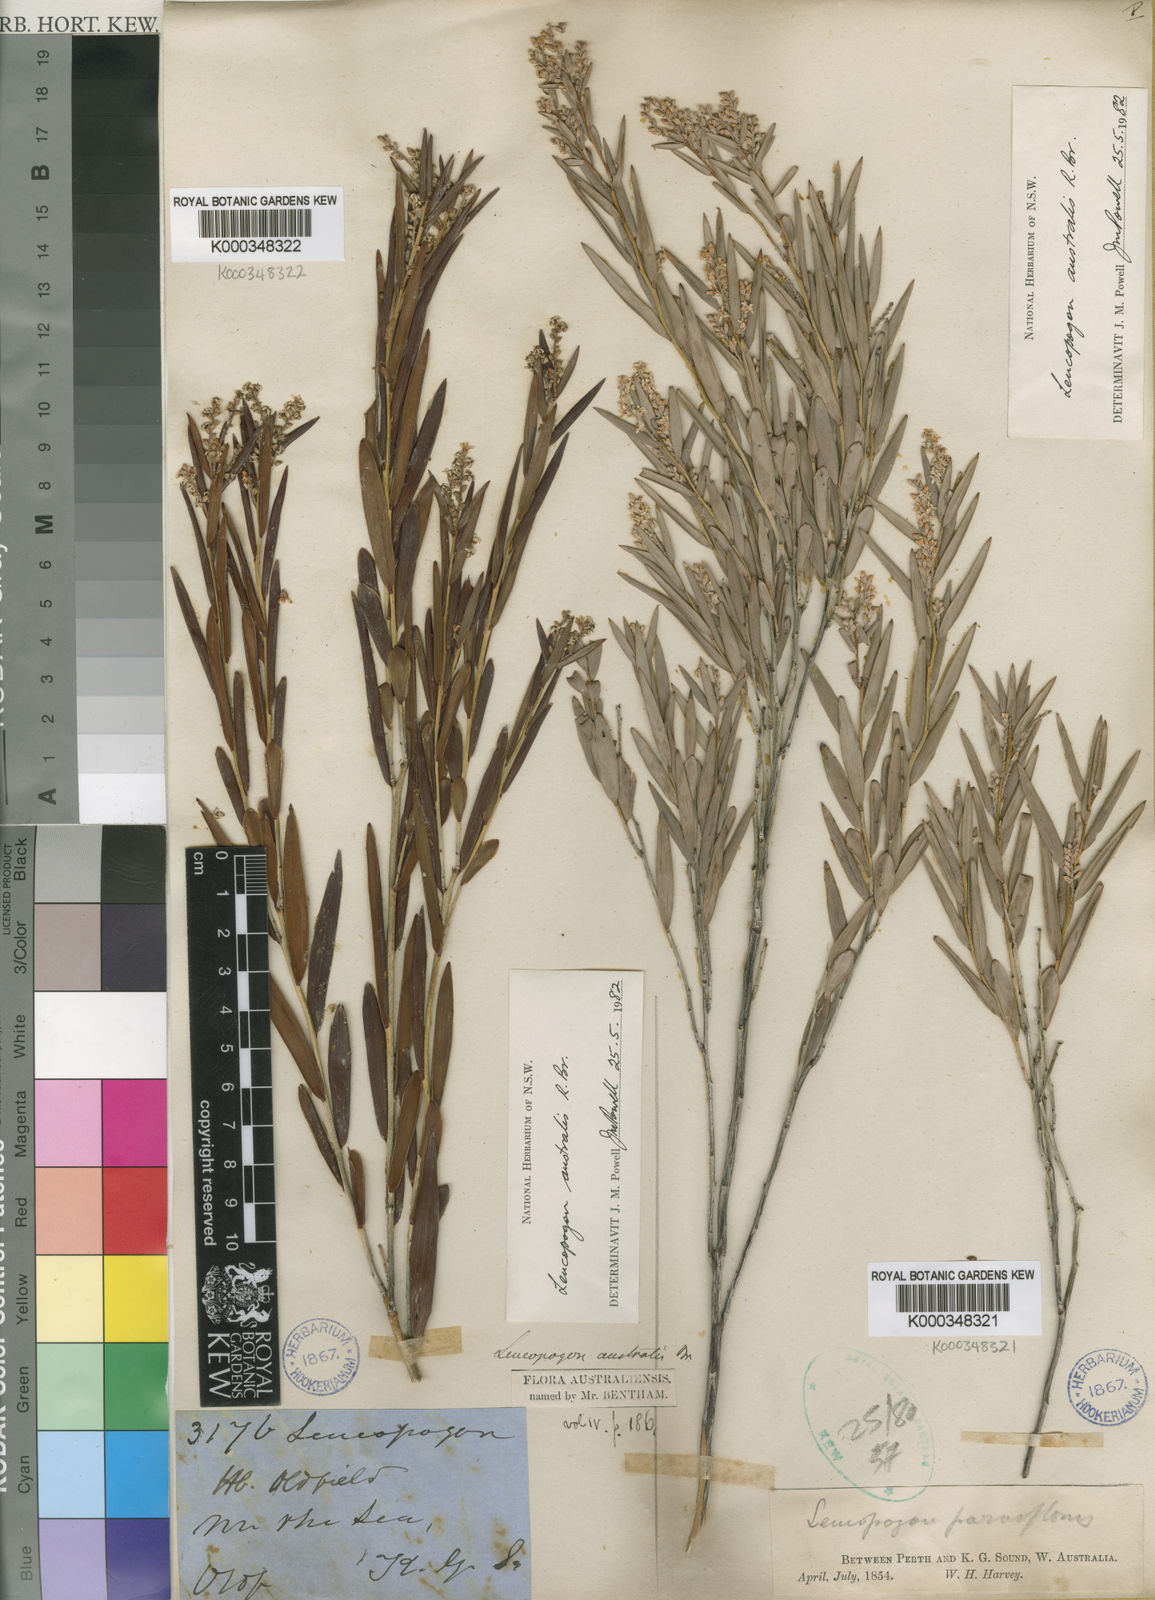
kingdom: Plantae
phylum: Tracheophyta
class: Magnoliopsida
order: Ericales
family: Ericaceae
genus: Leucopogon
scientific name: Leucopogon australis
